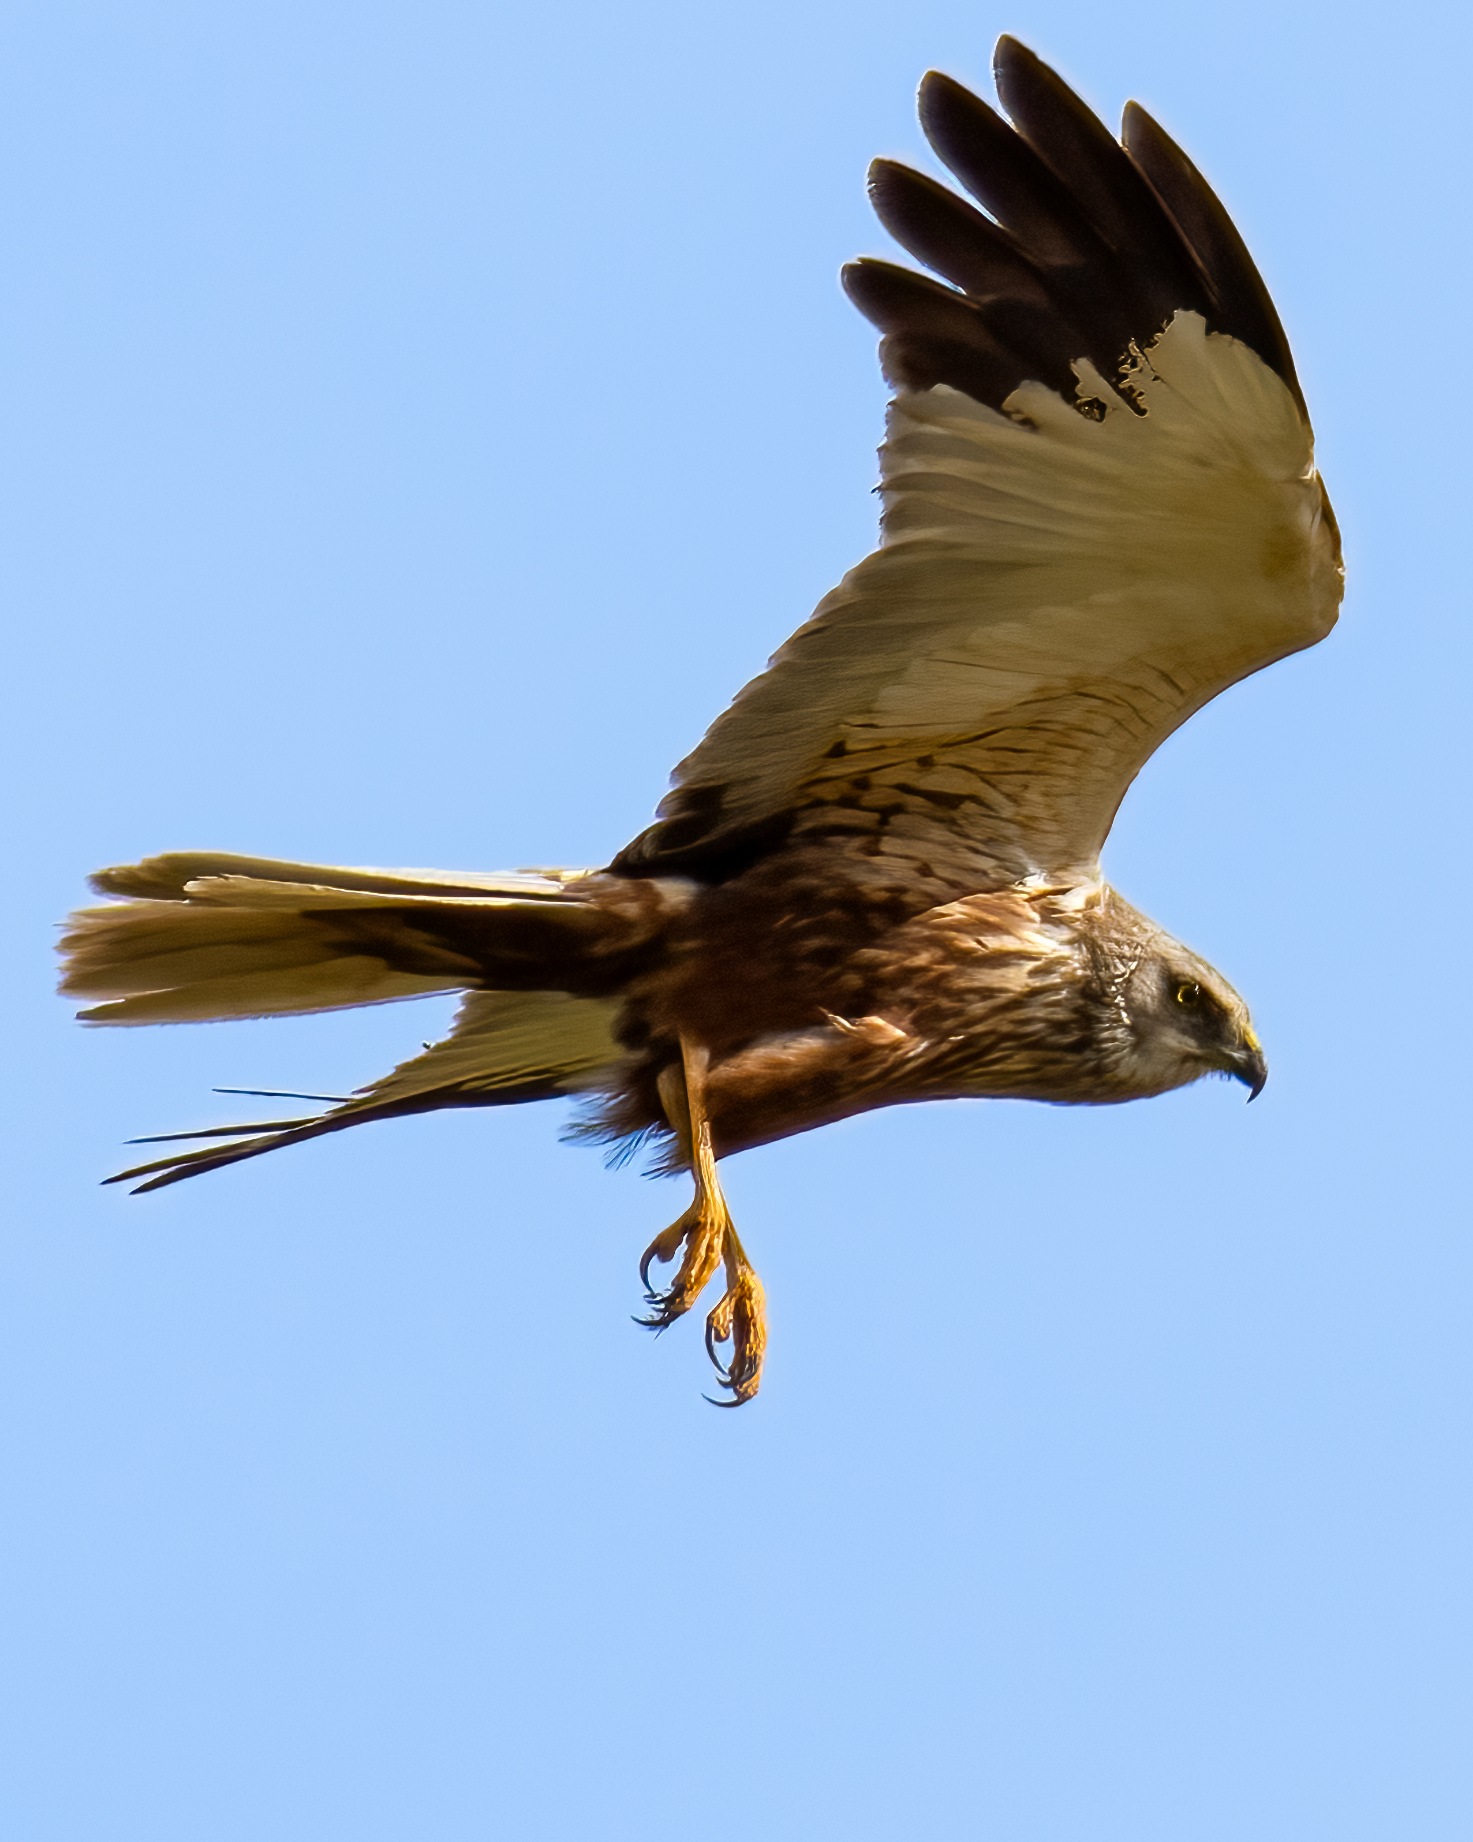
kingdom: Animalia
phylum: Chordata
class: Aves
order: Accipitriformes
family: Accipitridae
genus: Circus
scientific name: Circus aeruginosus
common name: Rørhøg
